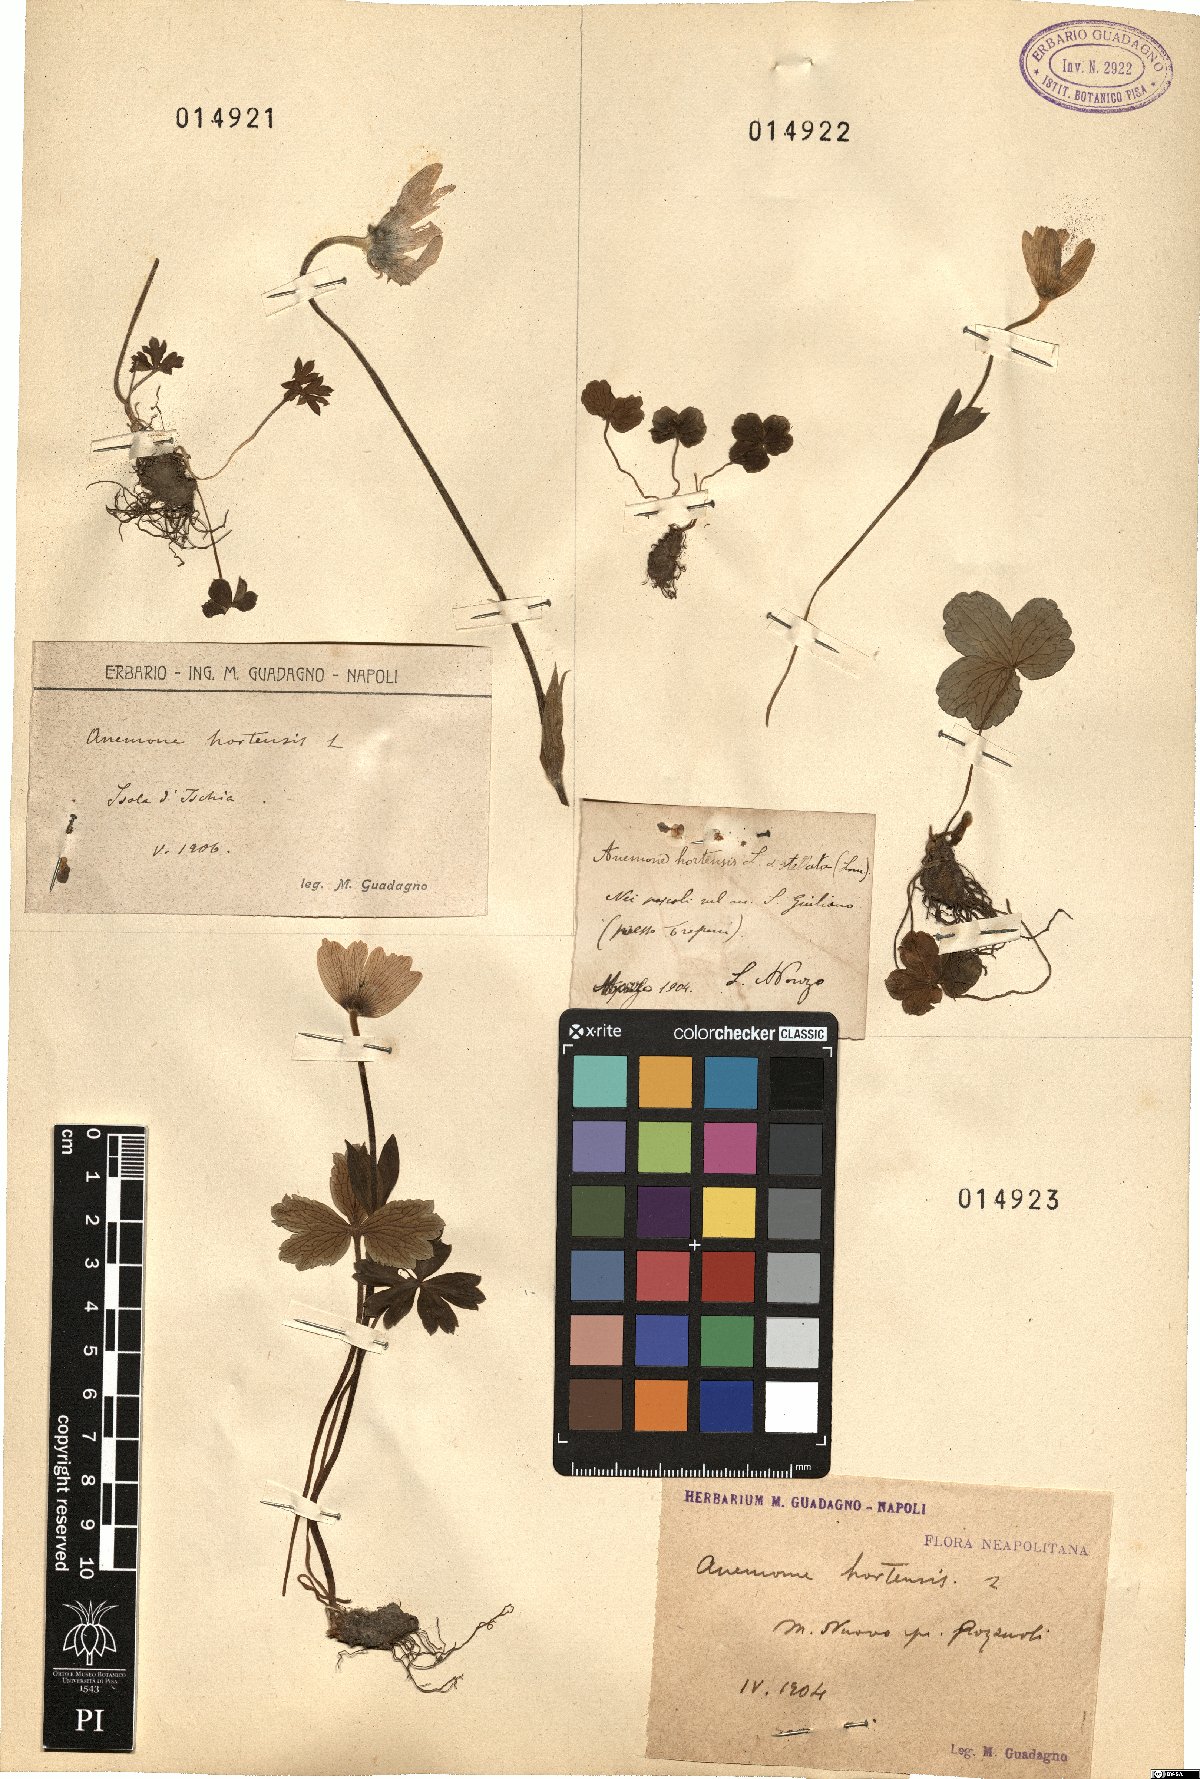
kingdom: Plantae
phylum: Tracheophyta
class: Magnoliopsida
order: Ranunculales
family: Ranunculaceae
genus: Anemone
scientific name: Anemone hortensis
